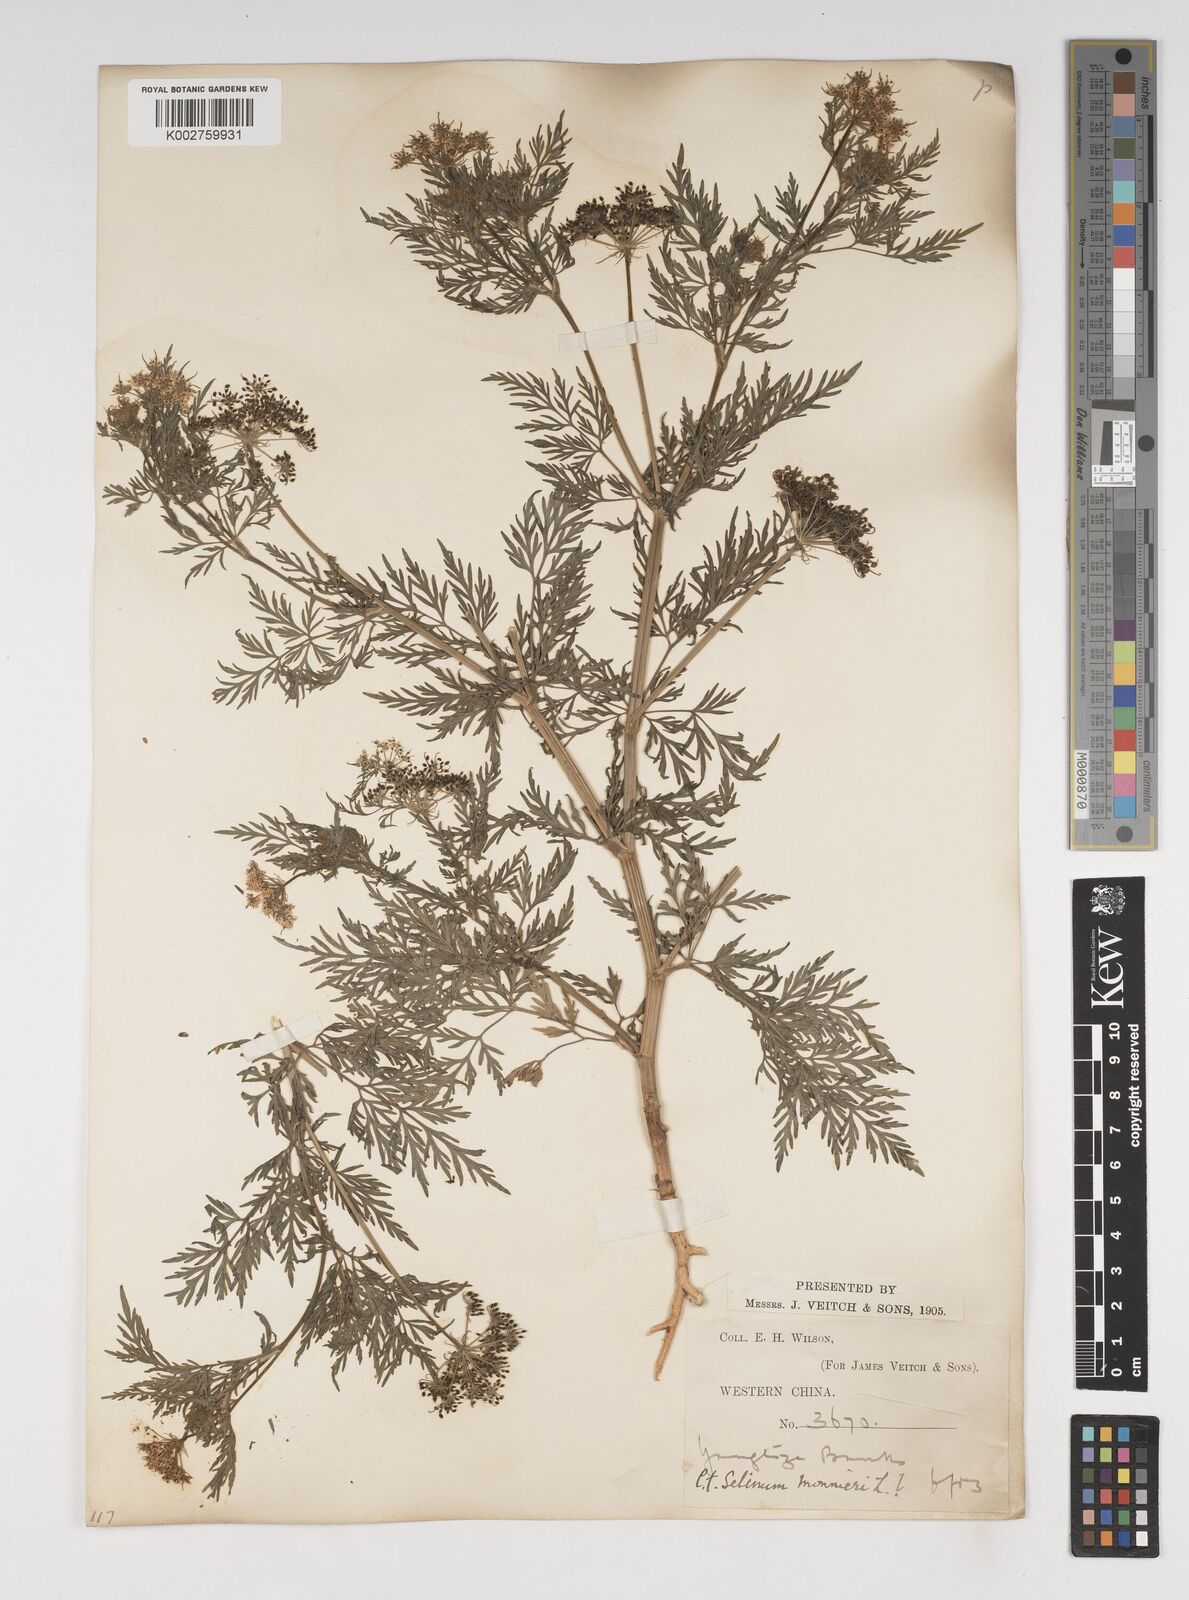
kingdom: Plantae
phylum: Tracheophyta
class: Magnoliopsida
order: Apiales
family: Apiaceae
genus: Cnidium
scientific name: Cnidium monnieri
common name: Monnier's snowparsley
